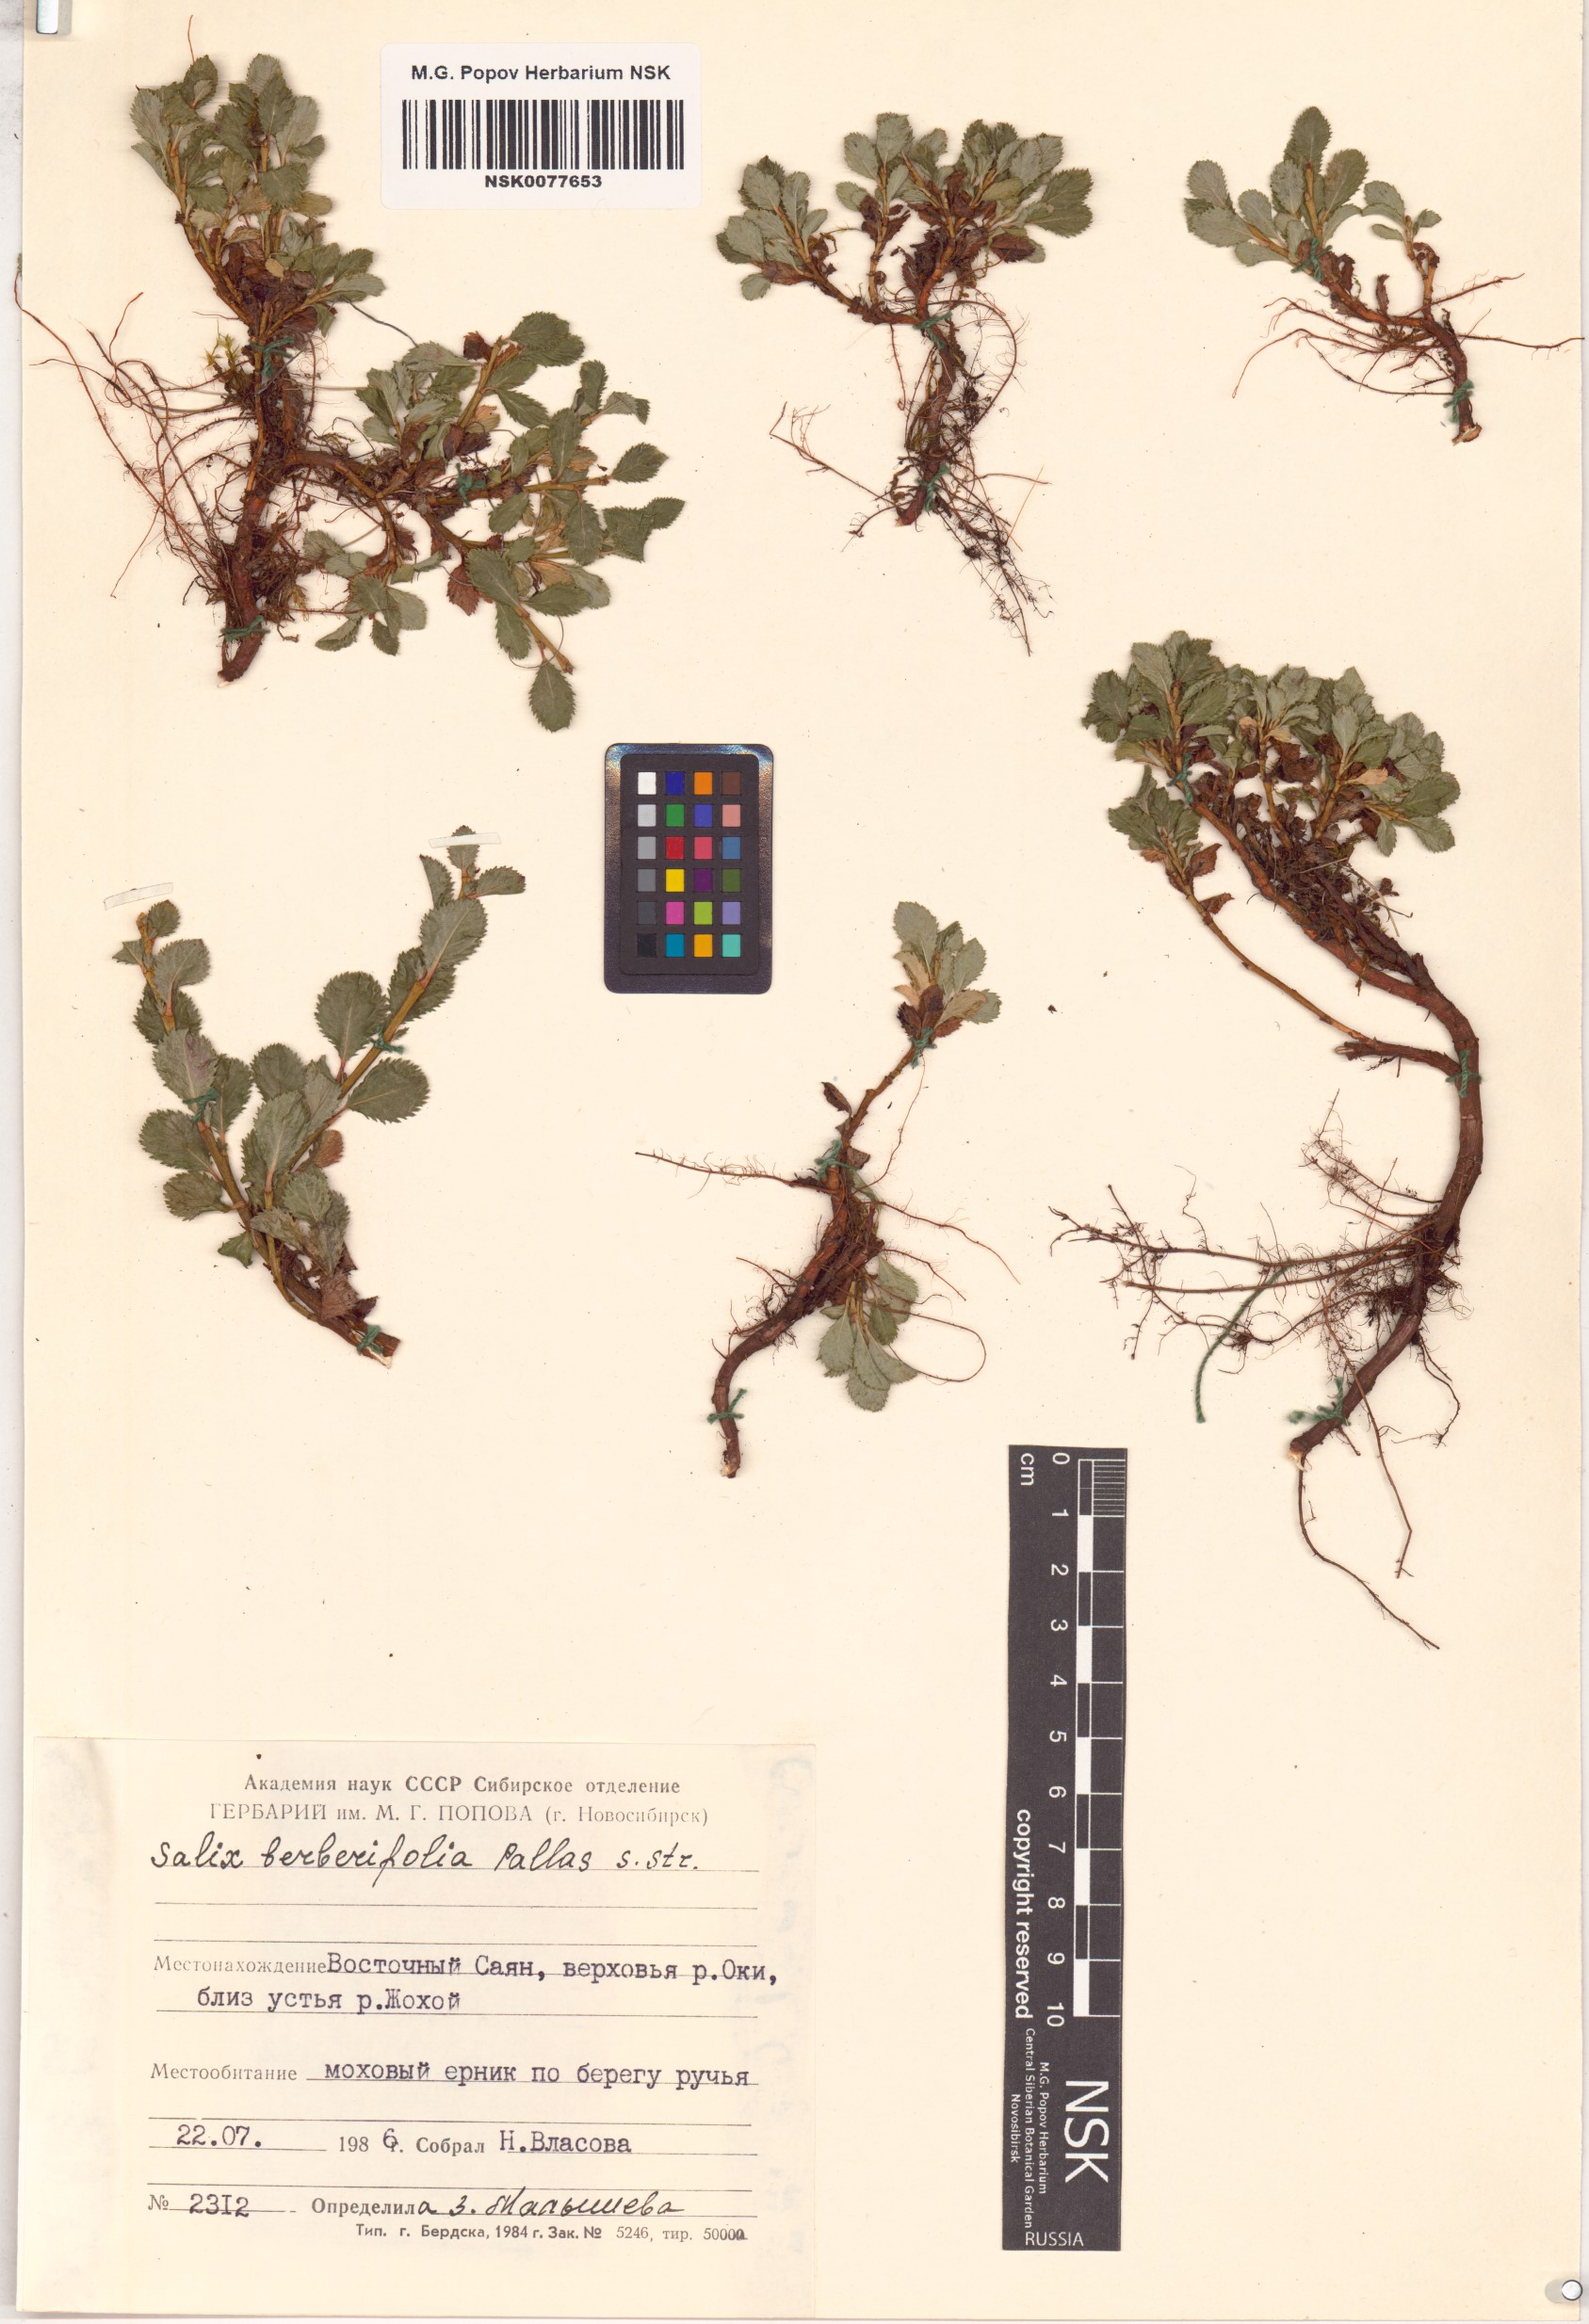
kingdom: Plantae
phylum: Tracheophyta
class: Magnoliopsida
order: Malpighiales
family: Salicaceae
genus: Salix
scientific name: Salix berberifolia
